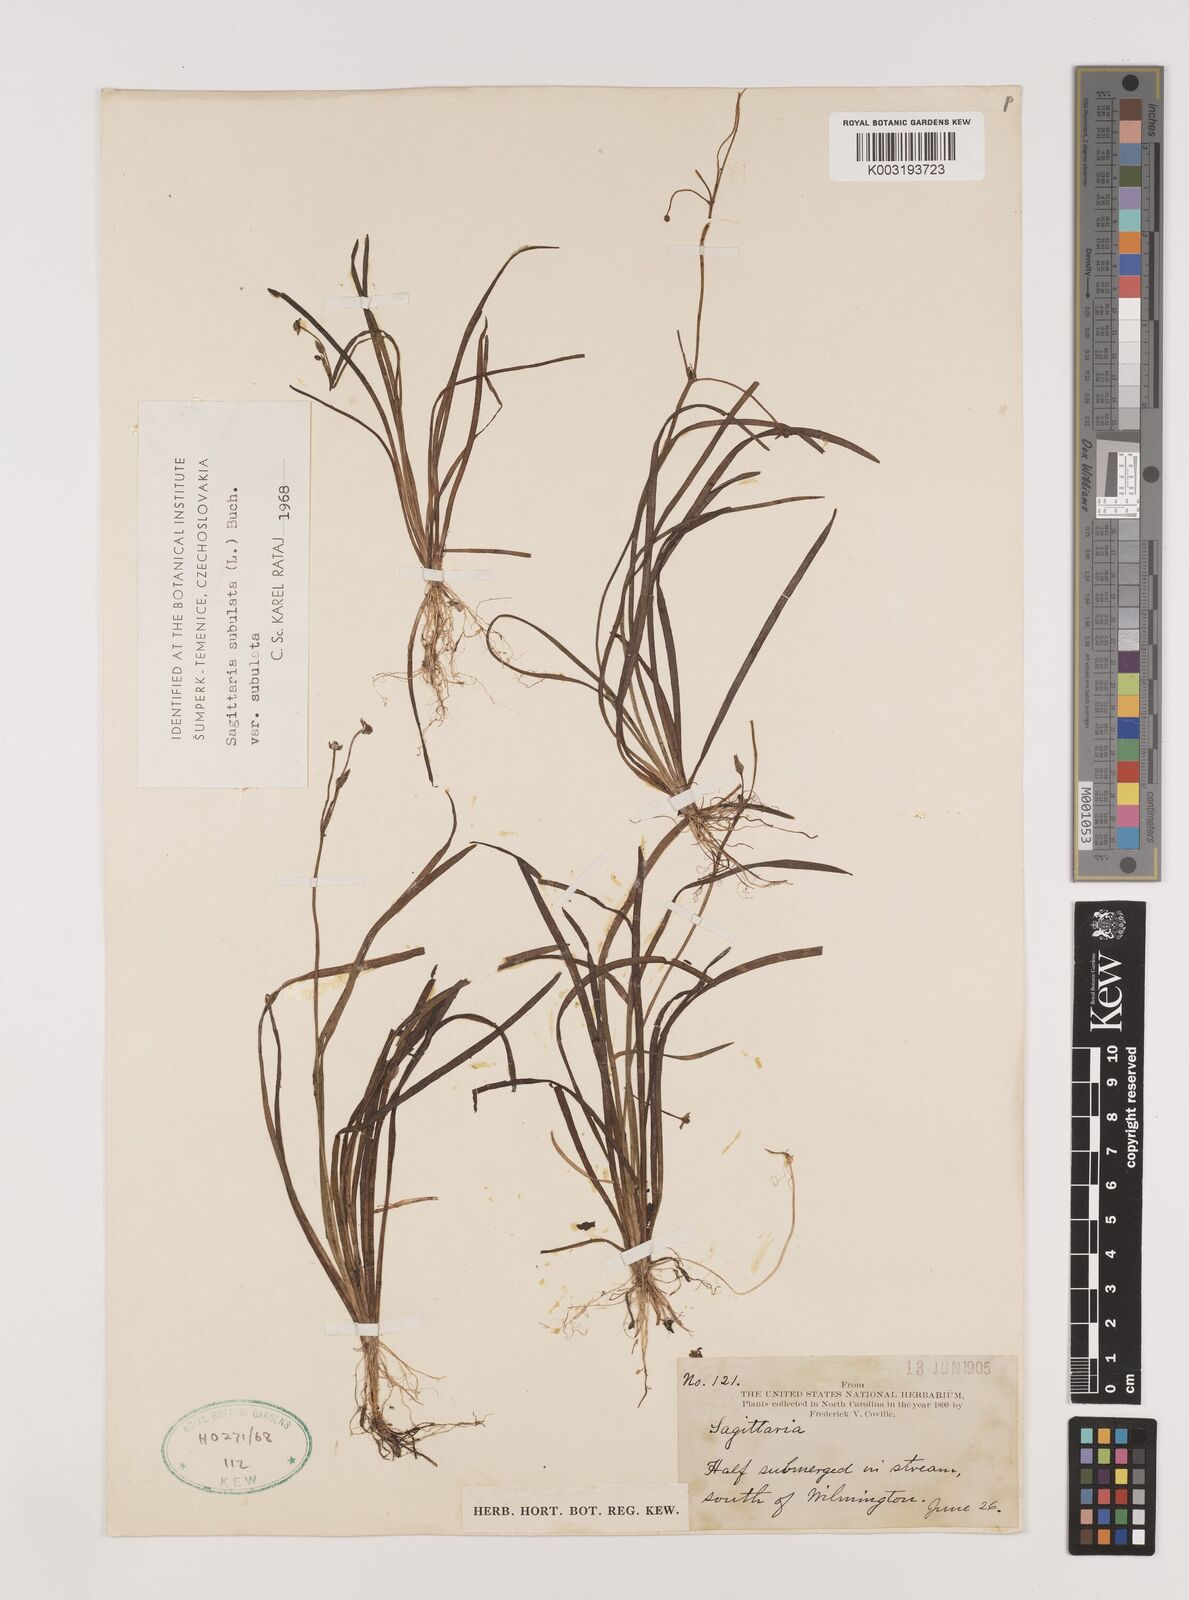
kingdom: Plantae
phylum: Tracheophyta
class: Liliopsida
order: Alismatales
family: Alismataceae
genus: Sagittaria
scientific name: Sagittaria subulata
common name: Narrow-leaved arrowhead
